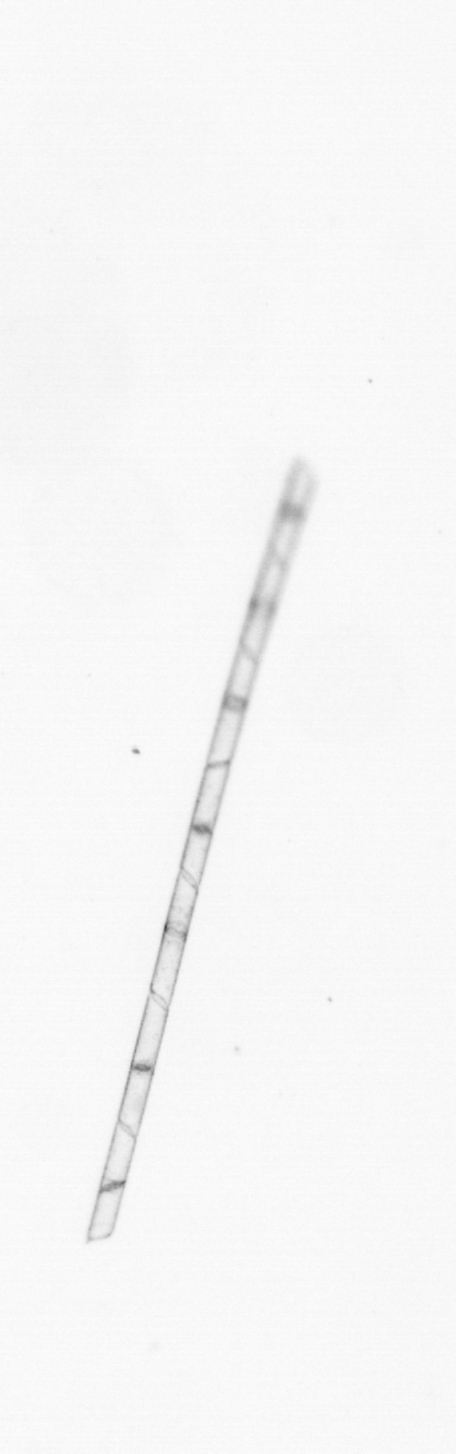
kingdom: Chromista
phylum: Ochrophyta
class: Bacillariophyceae
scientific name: Bacillariophyceae
